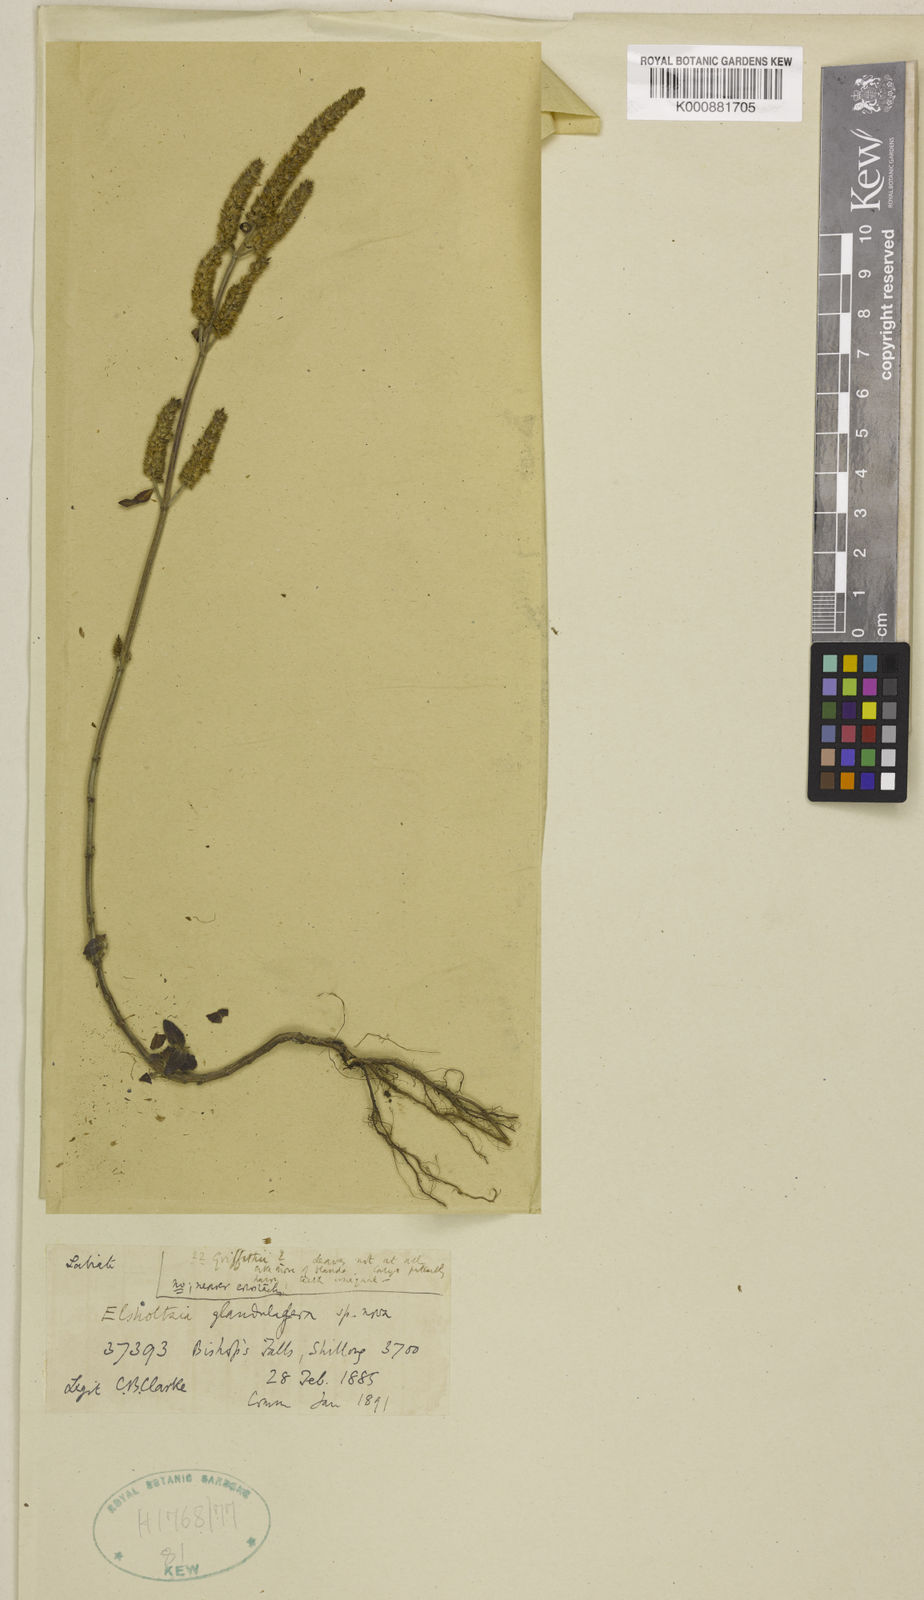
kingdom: Plantae
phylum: Tracheophyta
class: Magnoliopsida
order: Lamiales
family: Lamiaceae
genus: Elsholtzia
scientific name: Elsholtzia
